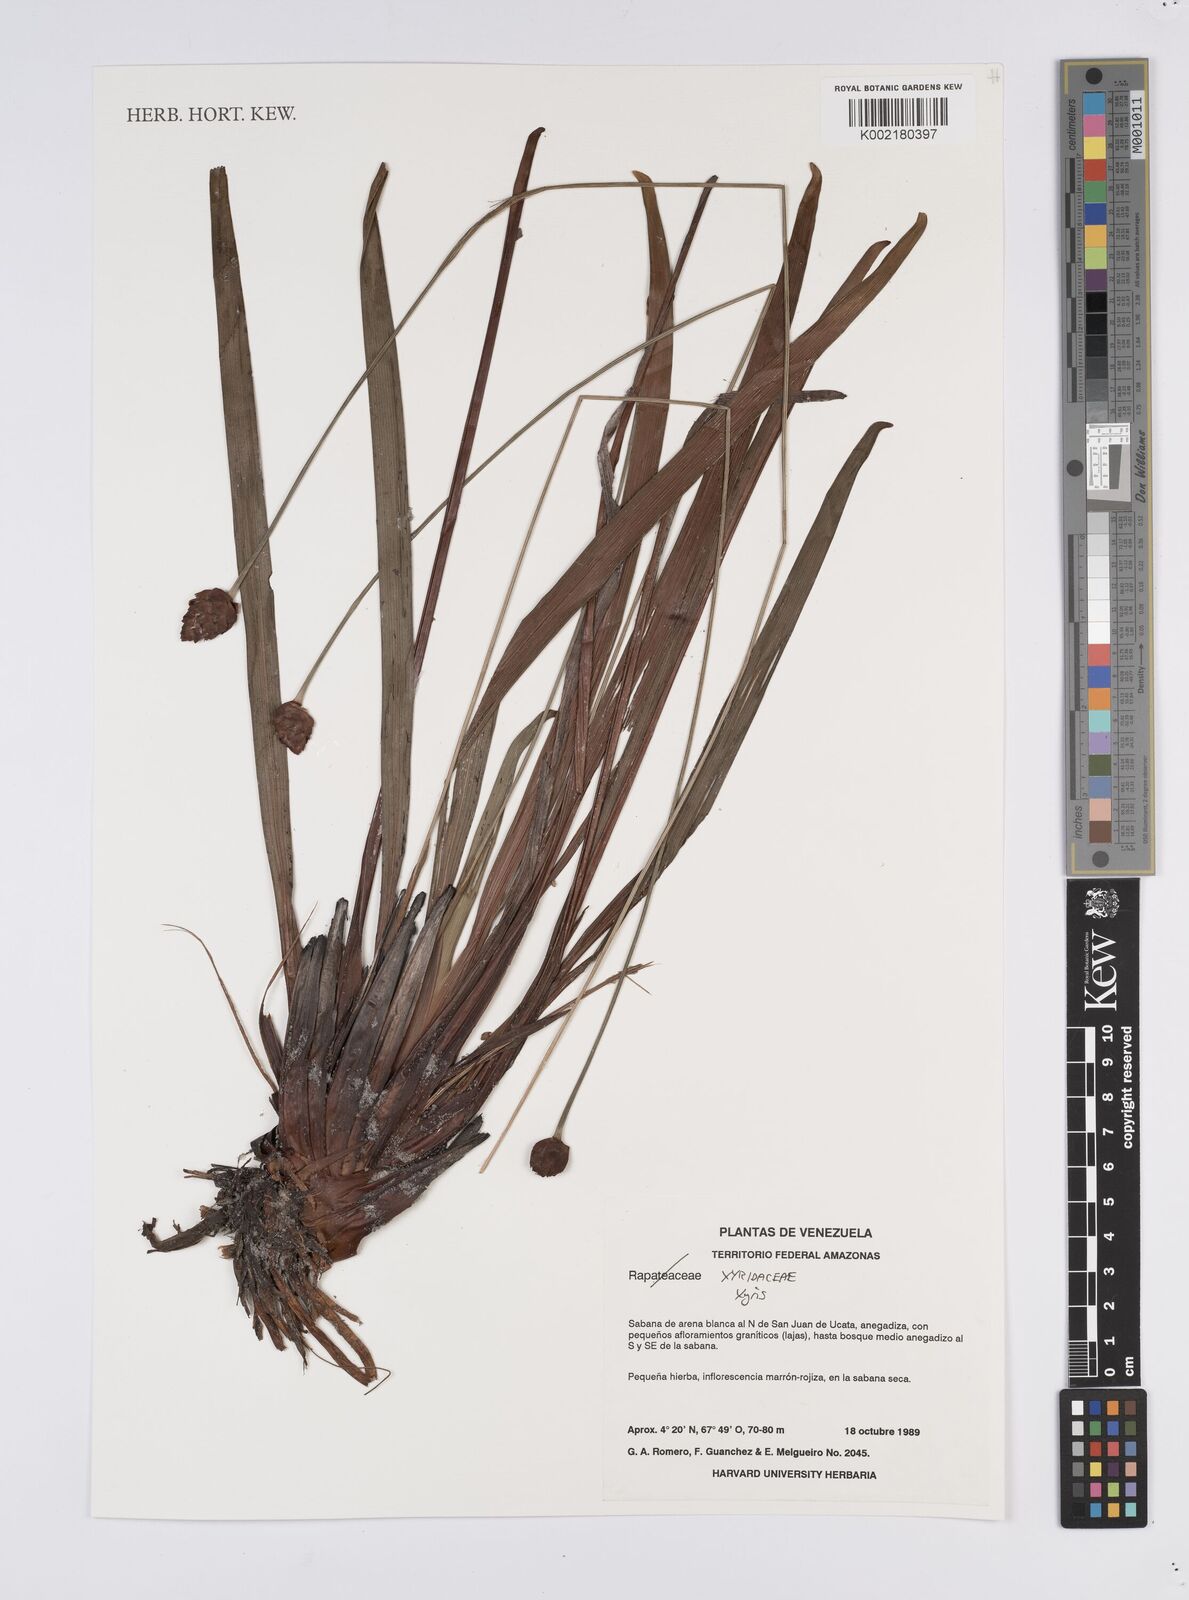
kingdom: Plantae
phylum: Tracheophyta
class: Liliopsida
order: Poales
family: Xyridaceae
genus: Xyris
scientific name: Xyris
